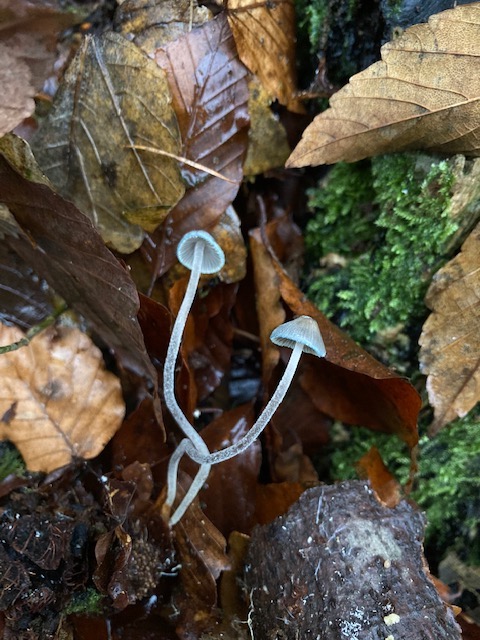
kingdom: Fungi
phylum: Basidiomycota
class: Agaricomycetes
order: Agaricales
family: Mycenaceae
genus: Mycena
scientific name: Mycena amicta
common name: iris-huesvamp
